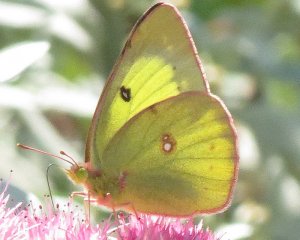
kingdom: Animalia
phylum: Arthropoda
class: Insecta
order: Lepidoptera
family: Pieridae
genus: Colias
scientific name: Colias philodice
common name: Clouded Sulphur
